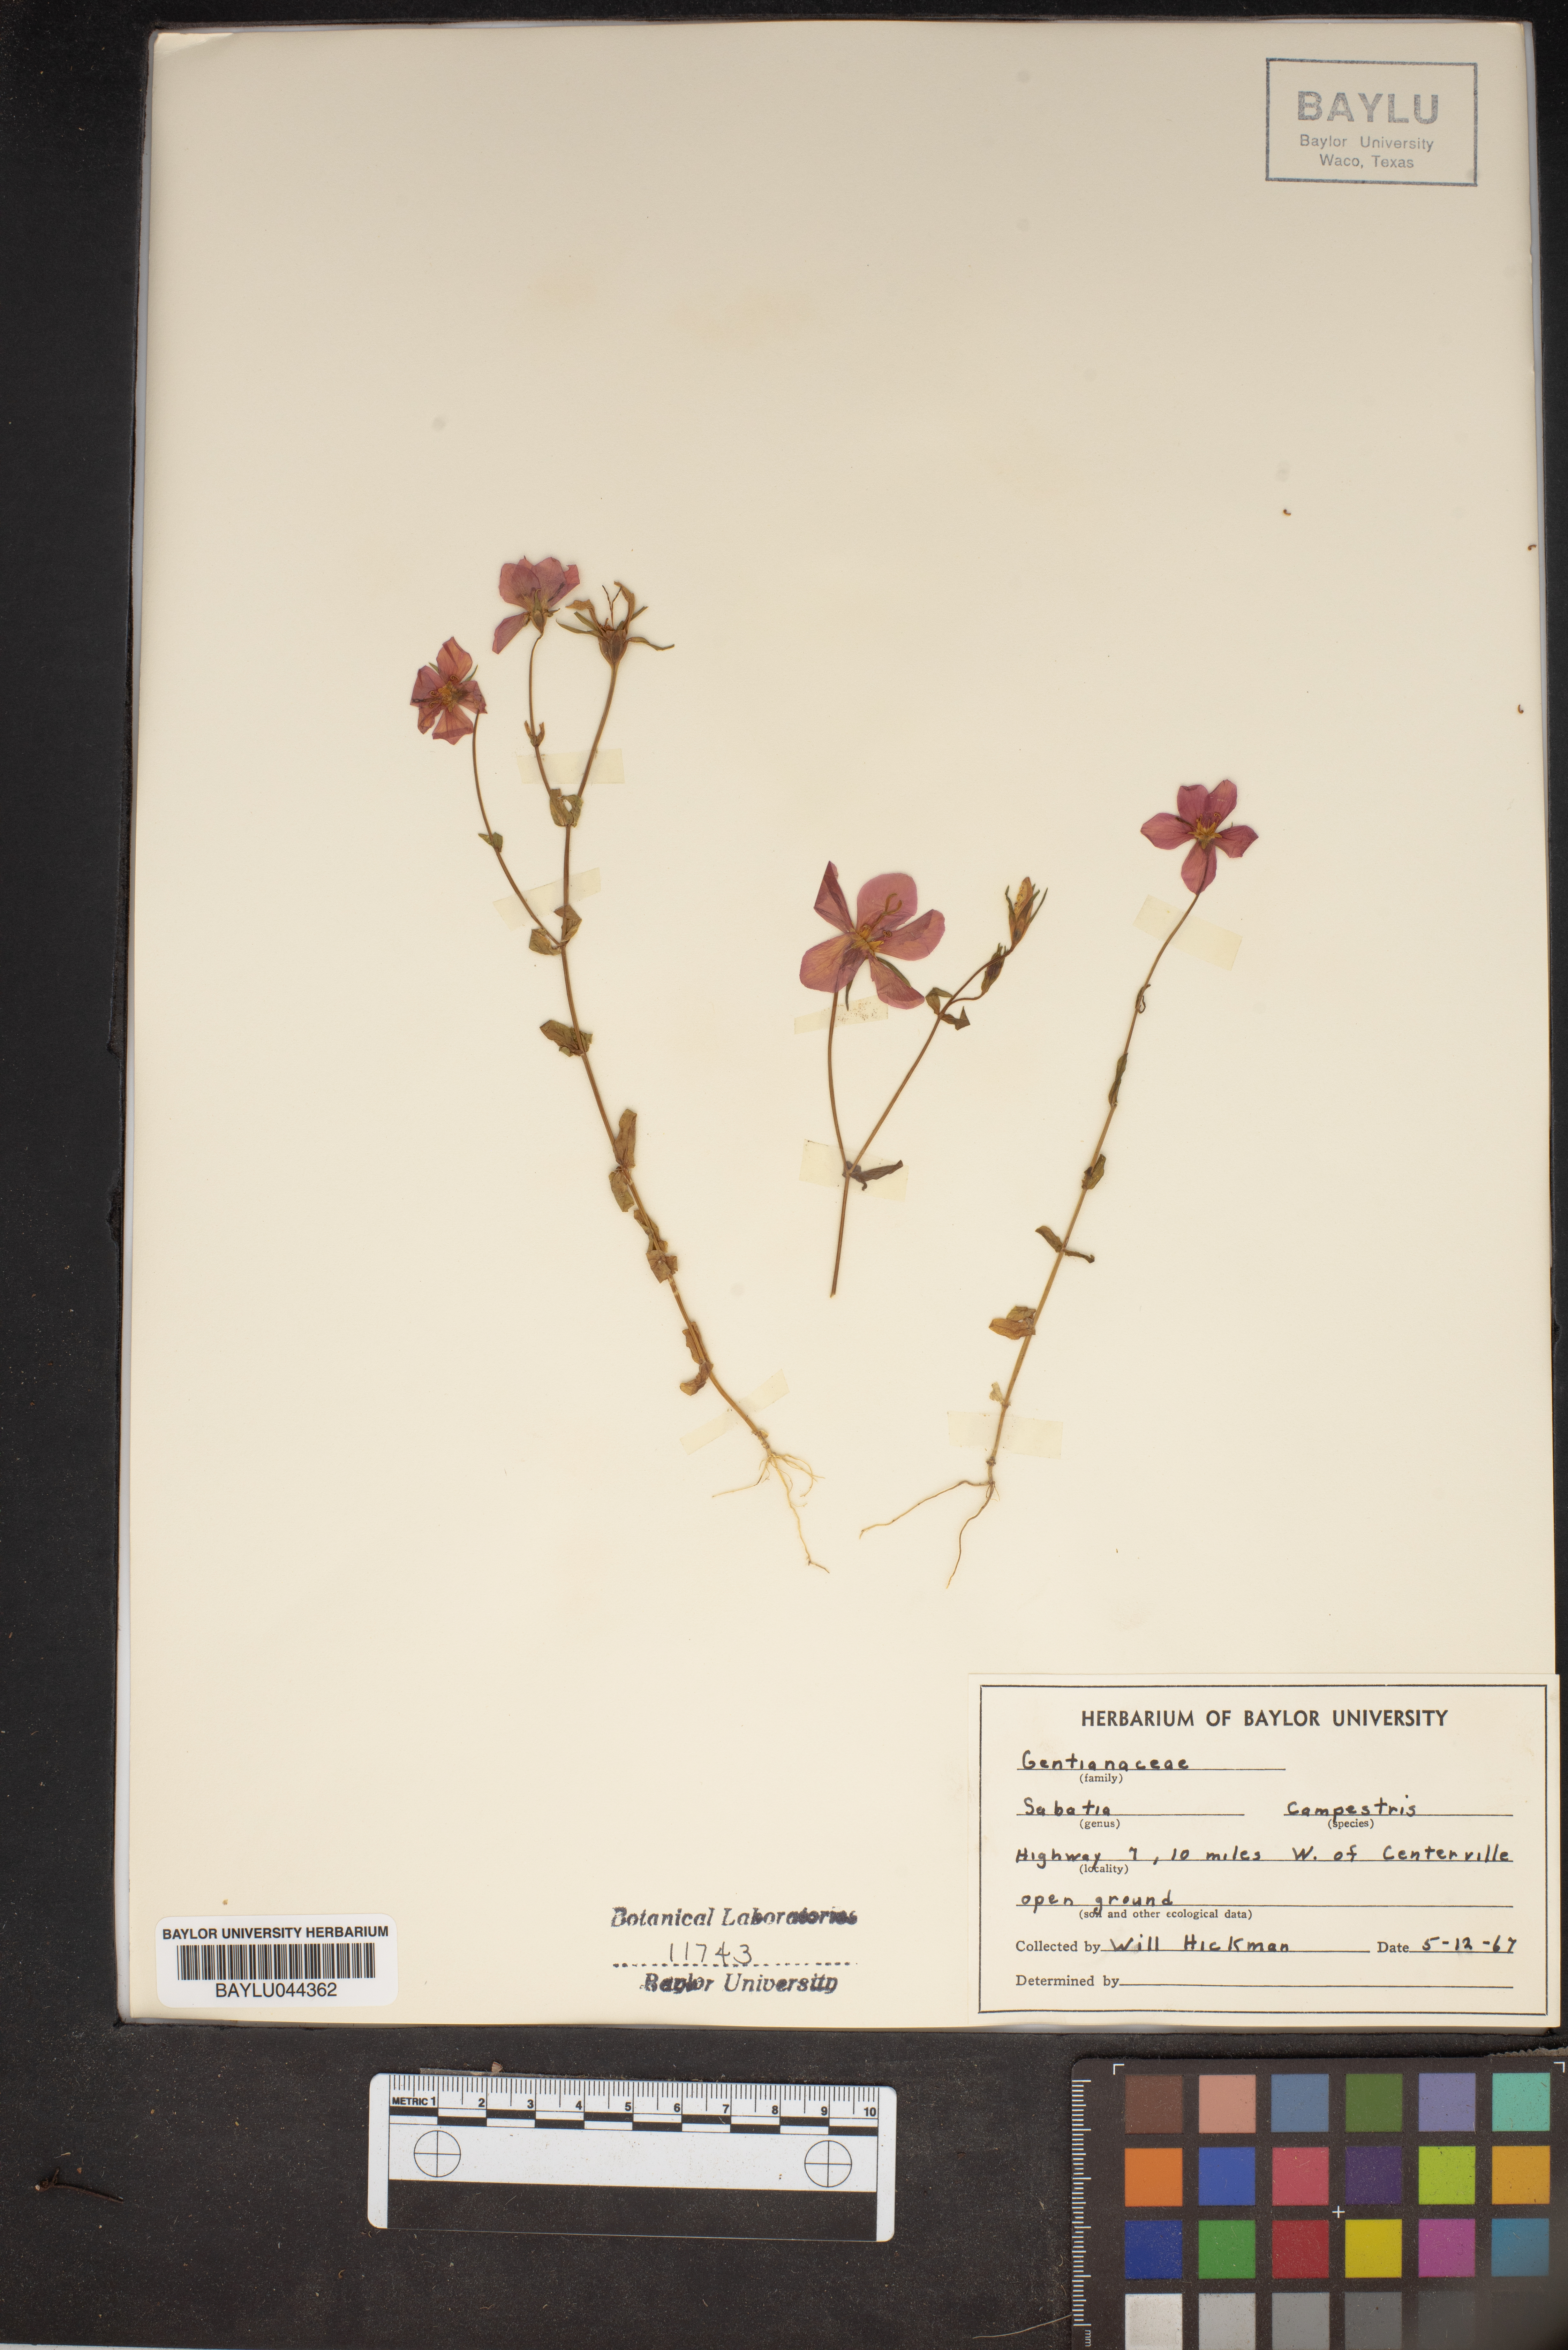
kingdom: Plantae
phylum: Tracheophyta
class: Magnoliopsida
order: Gentianales
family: Gentianaceae
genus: Sabatia
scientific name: Sabatia campestris
